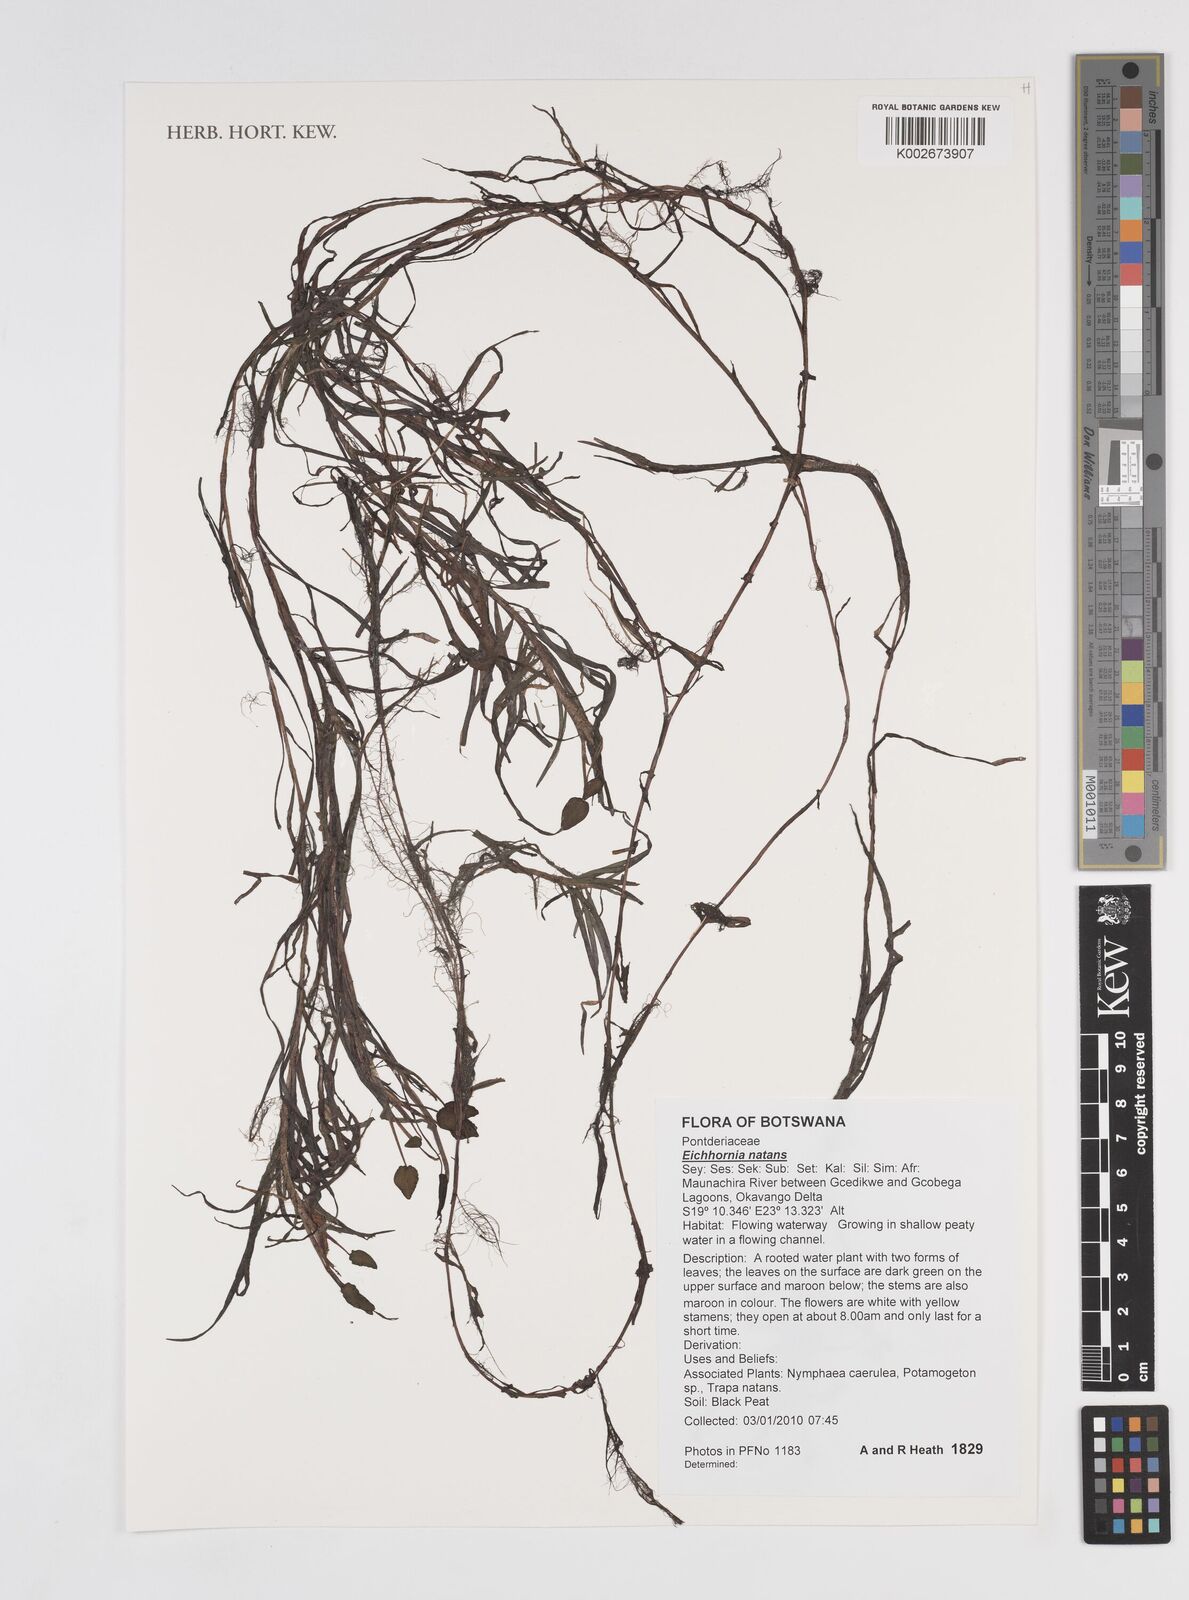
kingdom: Plantae
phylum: Tracheophyta
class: Liliopsida
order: Commelinales
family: Pontederiaceae
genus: Pontederia
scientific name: Pontederia natans
